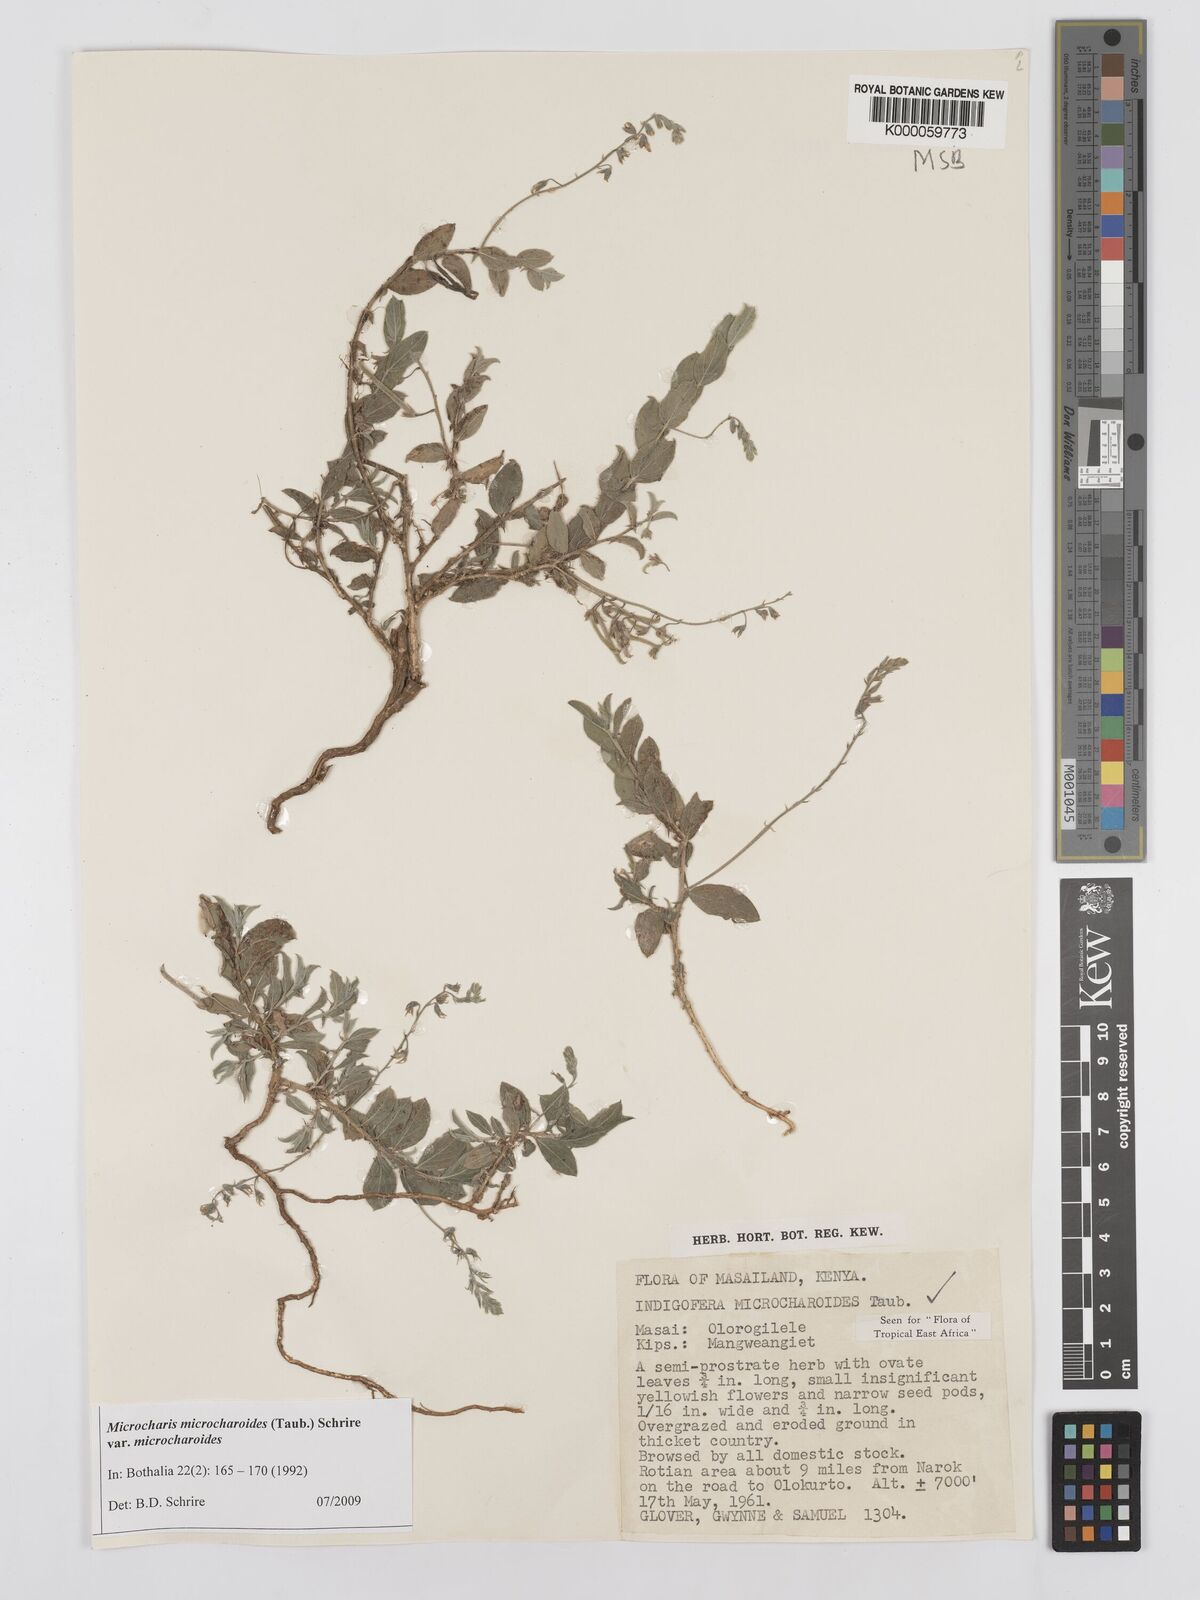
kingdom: Plantae
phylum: Tracheophyta
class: Magnoliopsida
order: Fabales
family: Fabaceae
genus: Microcharis
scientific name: Microcharis microcharoides
